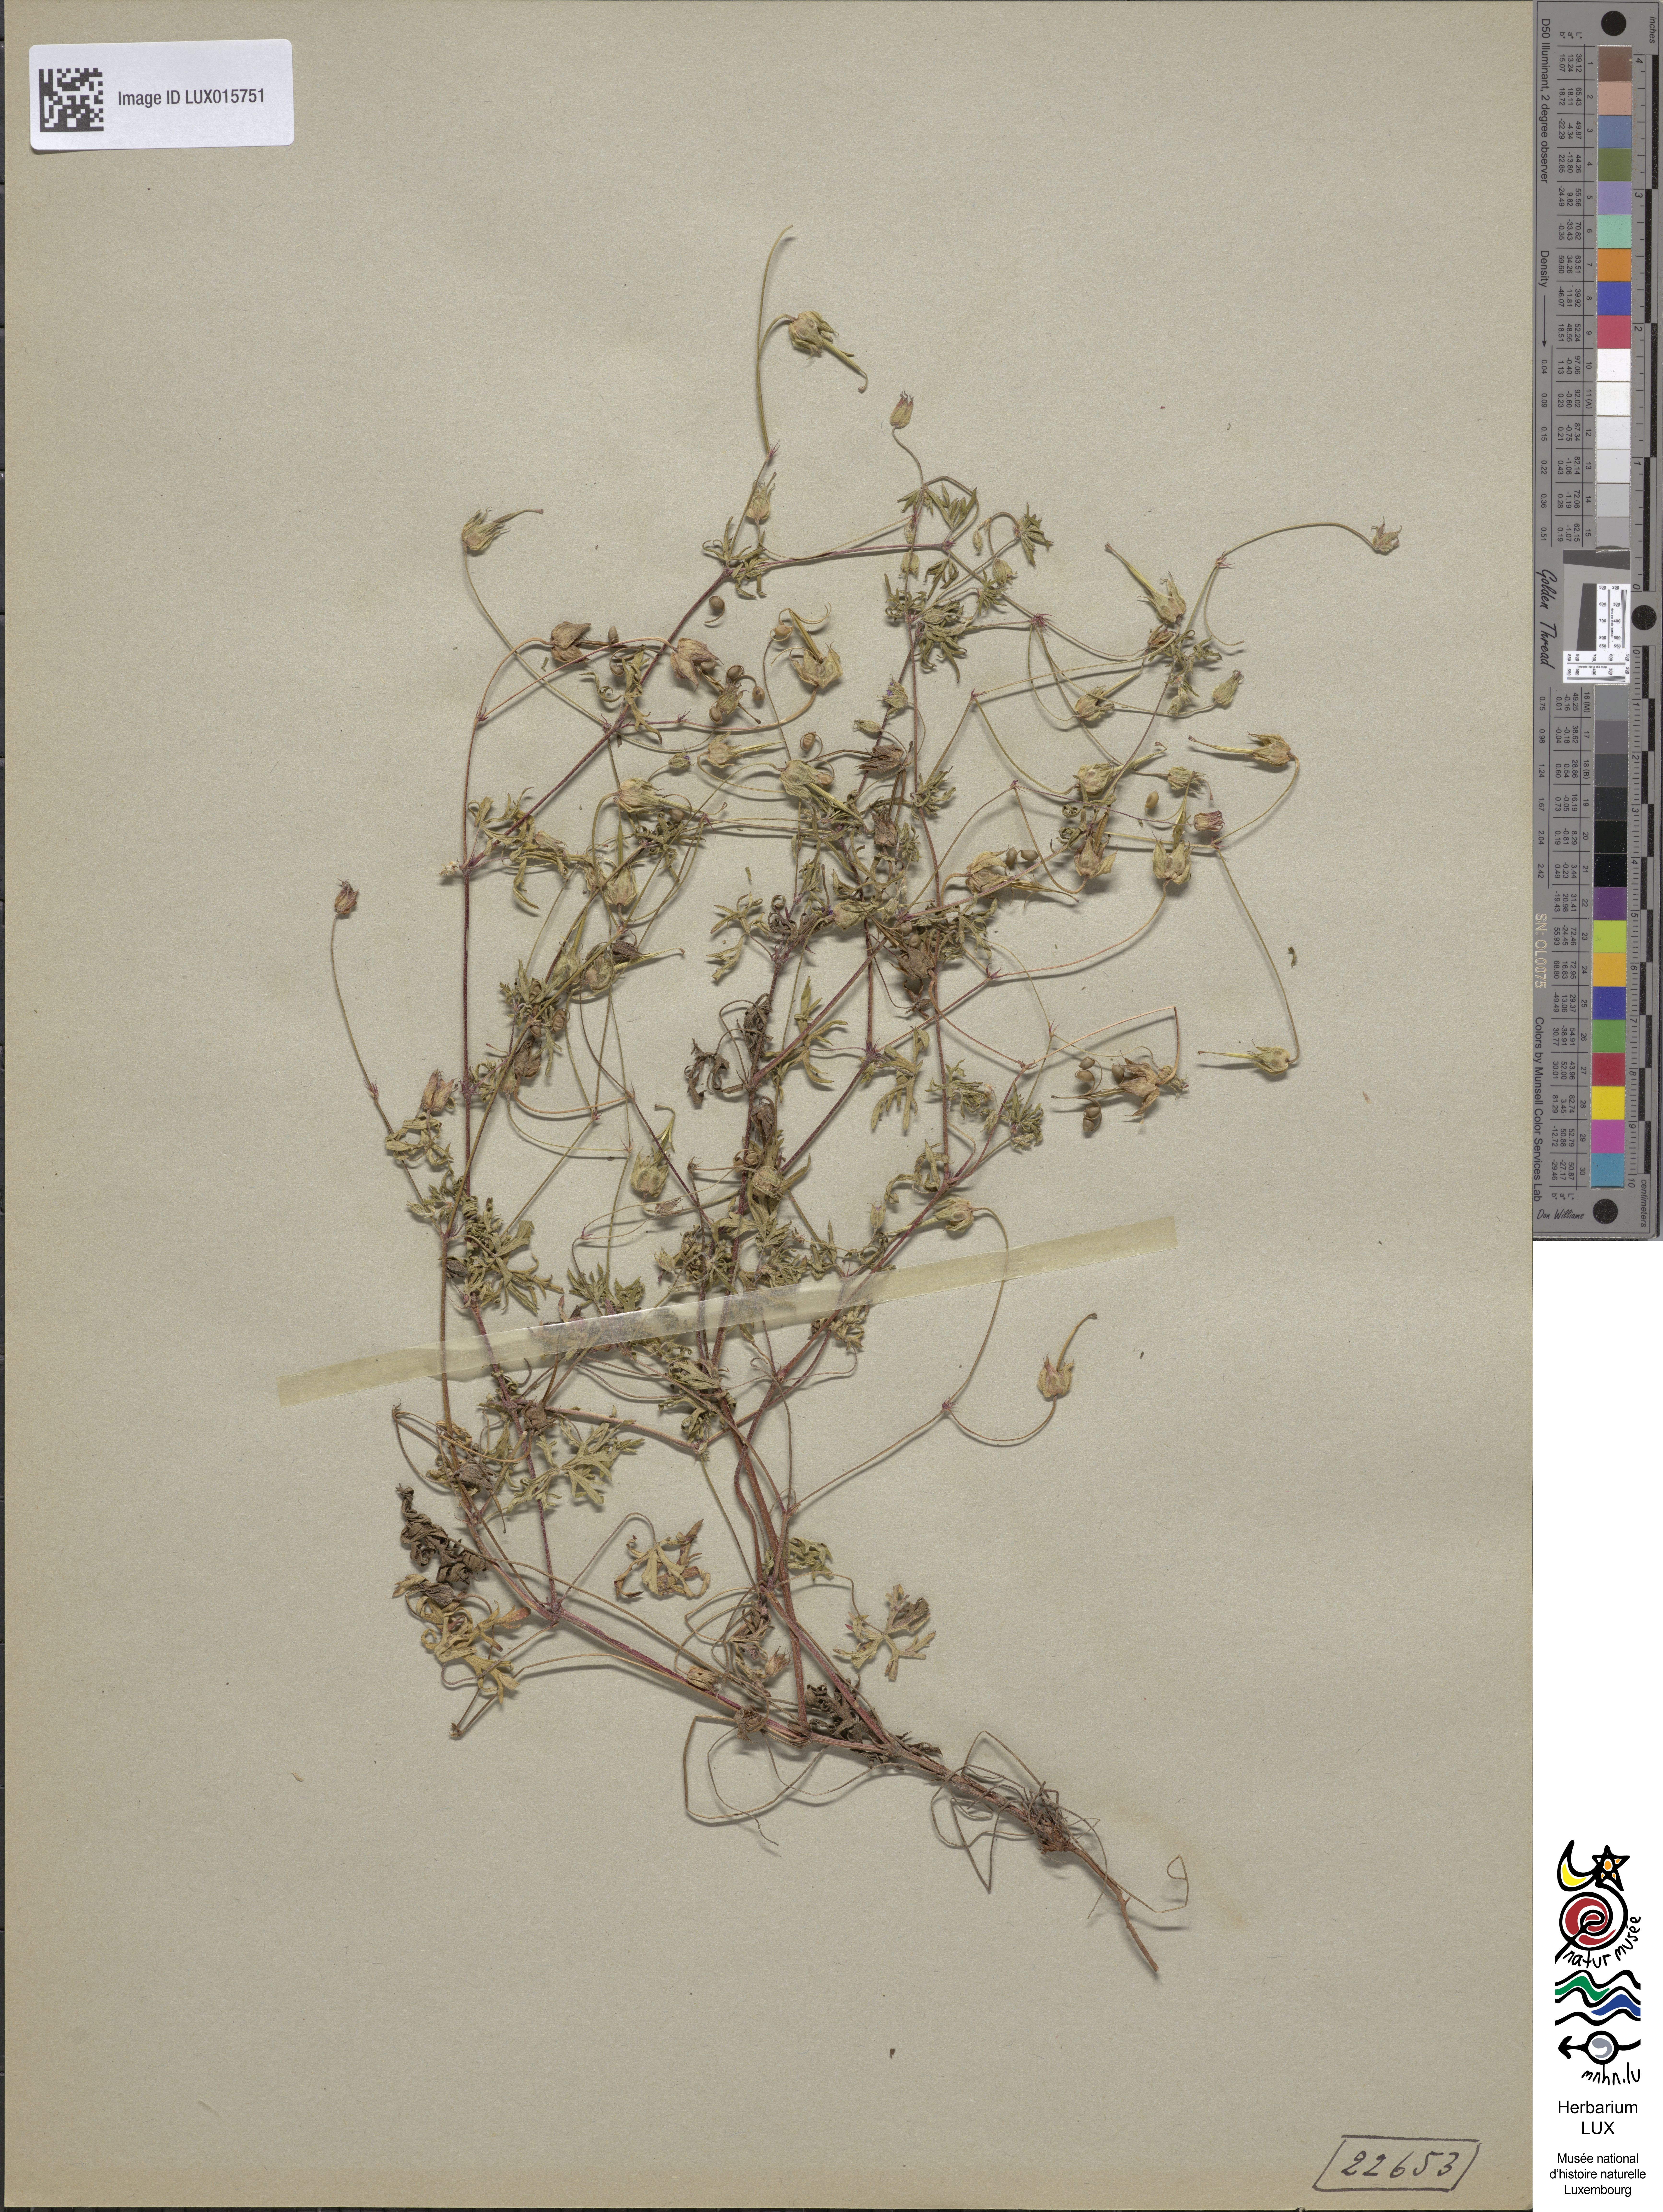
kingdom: Plantae
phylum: Tracheophyta
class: Magnoliopsida
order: Geraniales
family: Geraniaceae
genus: Geranium
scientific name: Geranium columbinum
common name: Long-stalked crane's-bill
